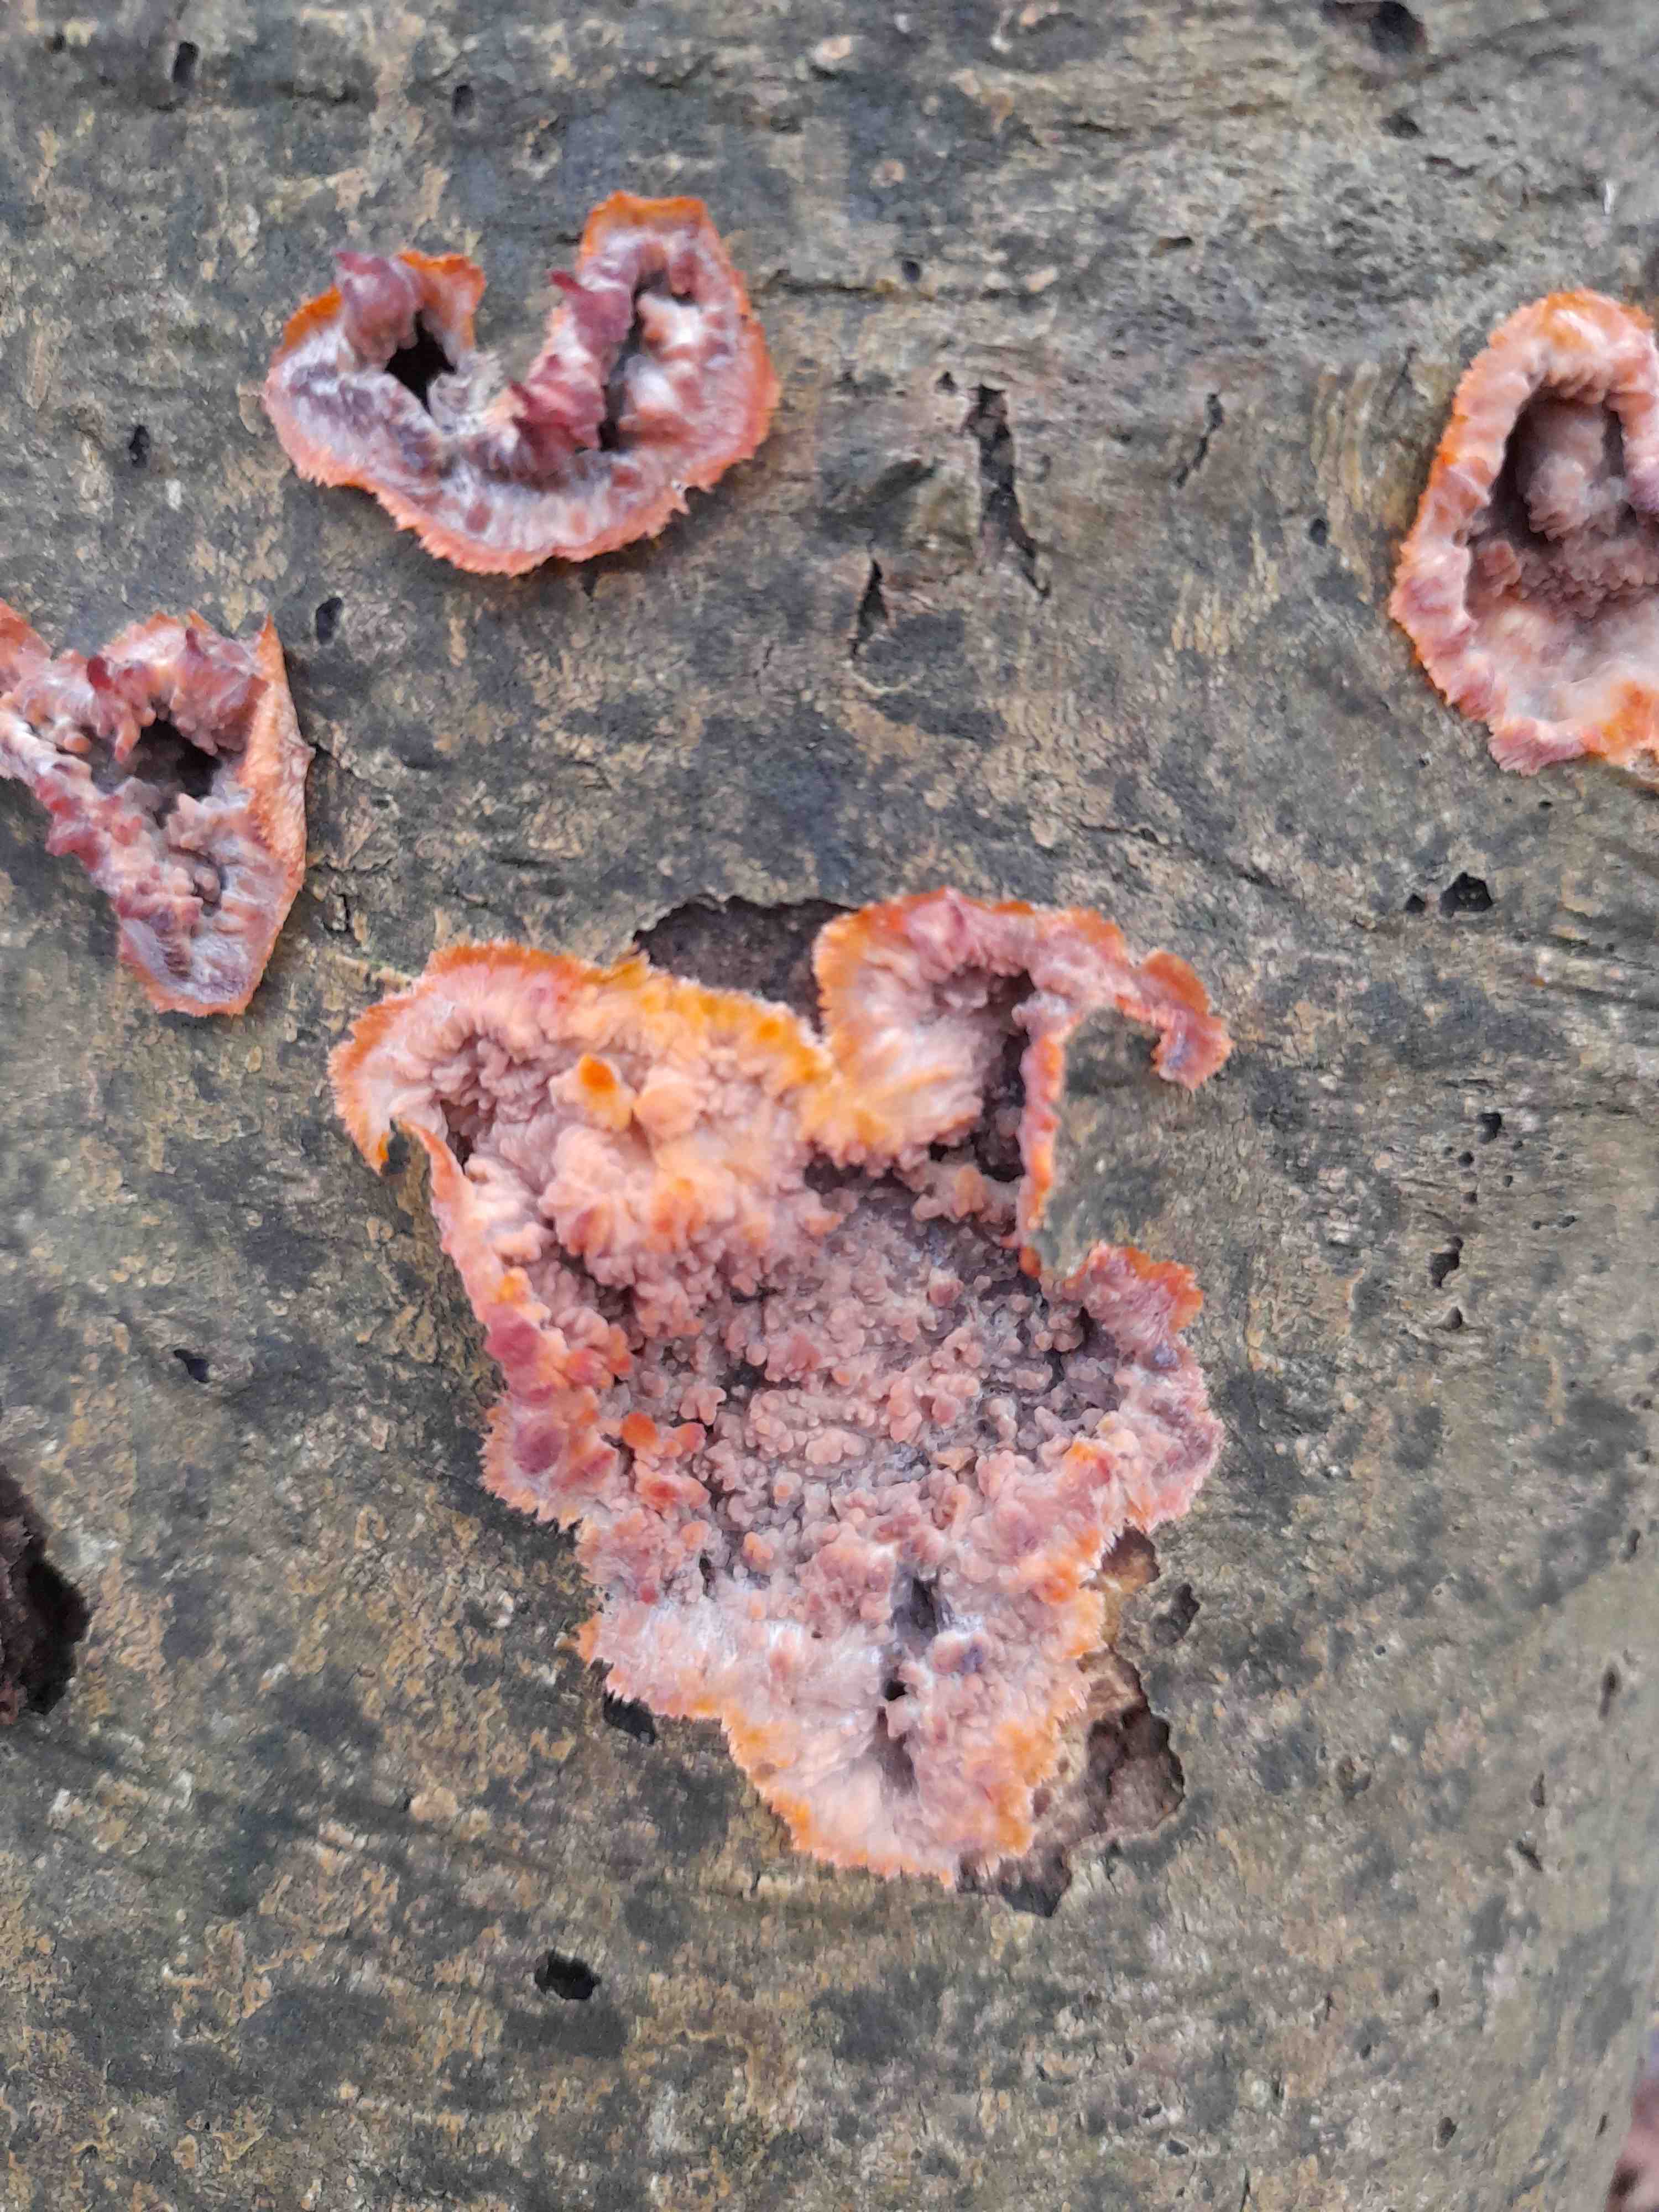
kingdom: Fungi
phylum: Basidiomycota
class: Agaricomycetes
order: Polyporales
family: Meruliaceae
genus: Phlebia
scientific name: Phlebia radiata
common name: stråle-åresvamp
